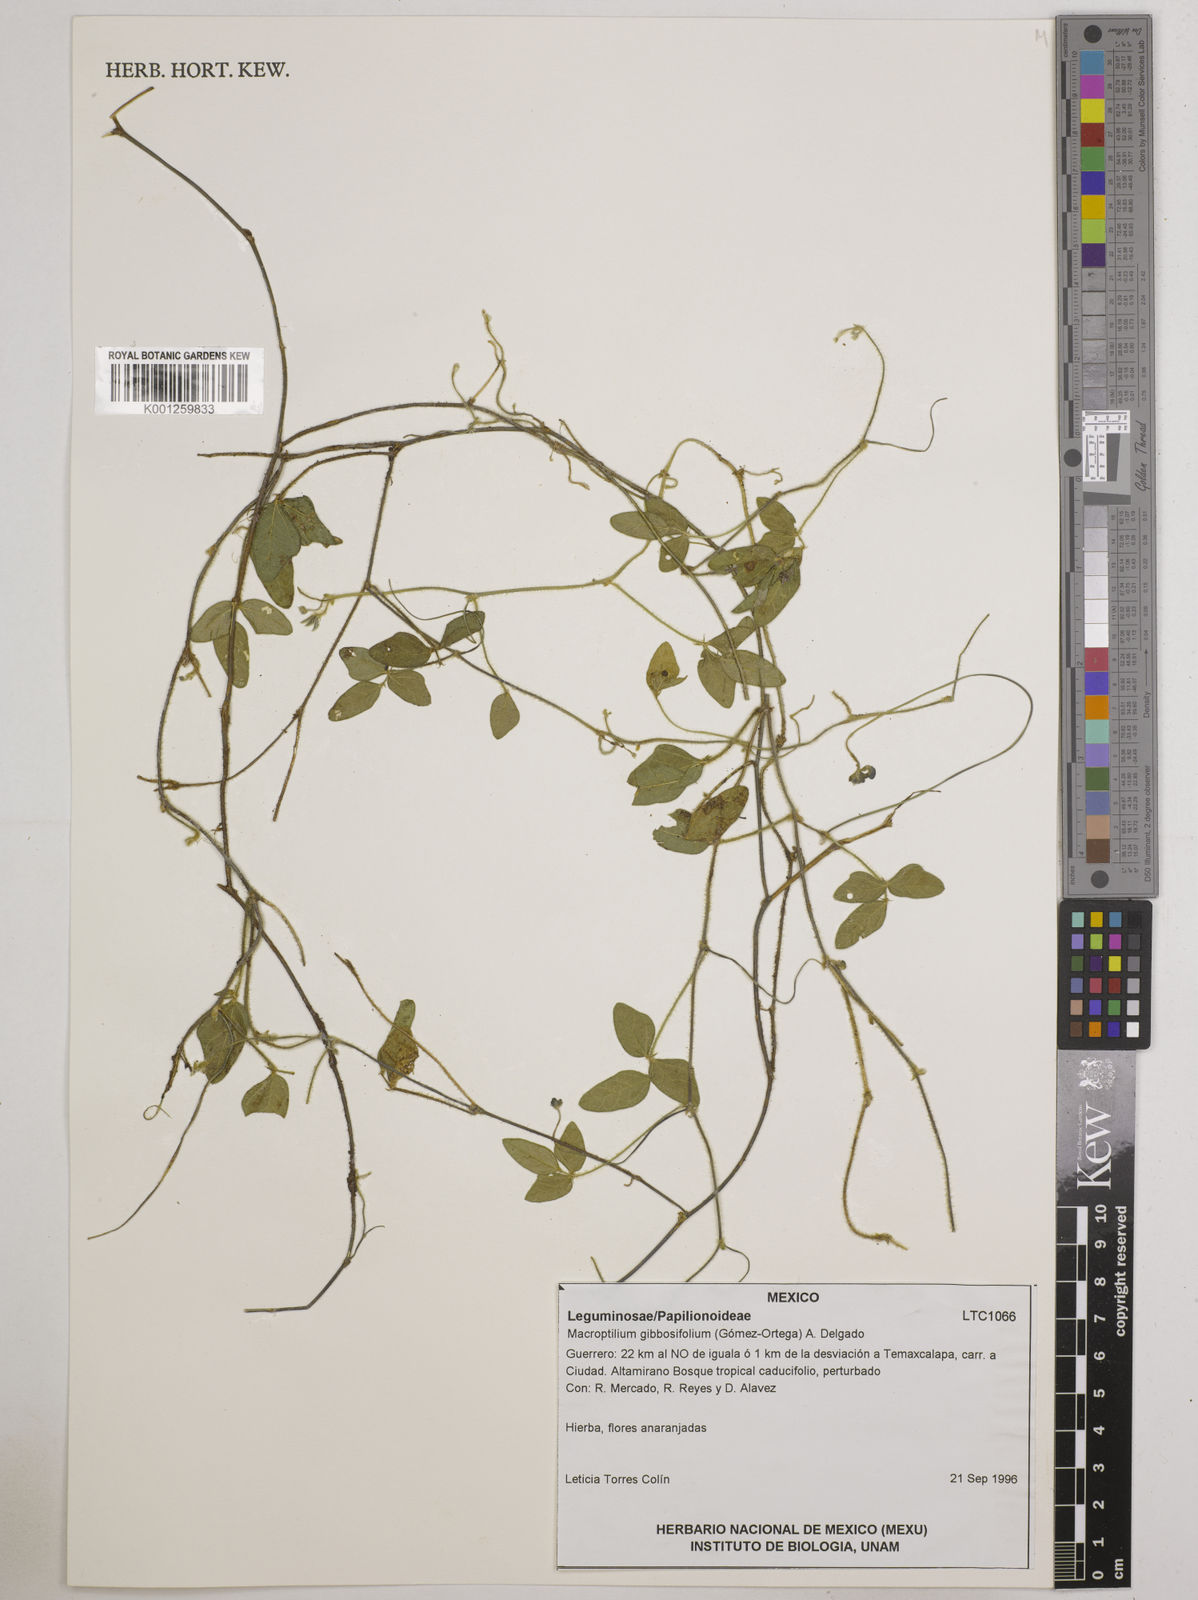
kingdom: Plantae
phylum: Tracheophyta
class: Magnoliopsida
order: Fabales
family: Fabaceae
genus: Macroptilium
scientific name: Macroptilium gibbosifolium
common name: Variableleaf bushbean
